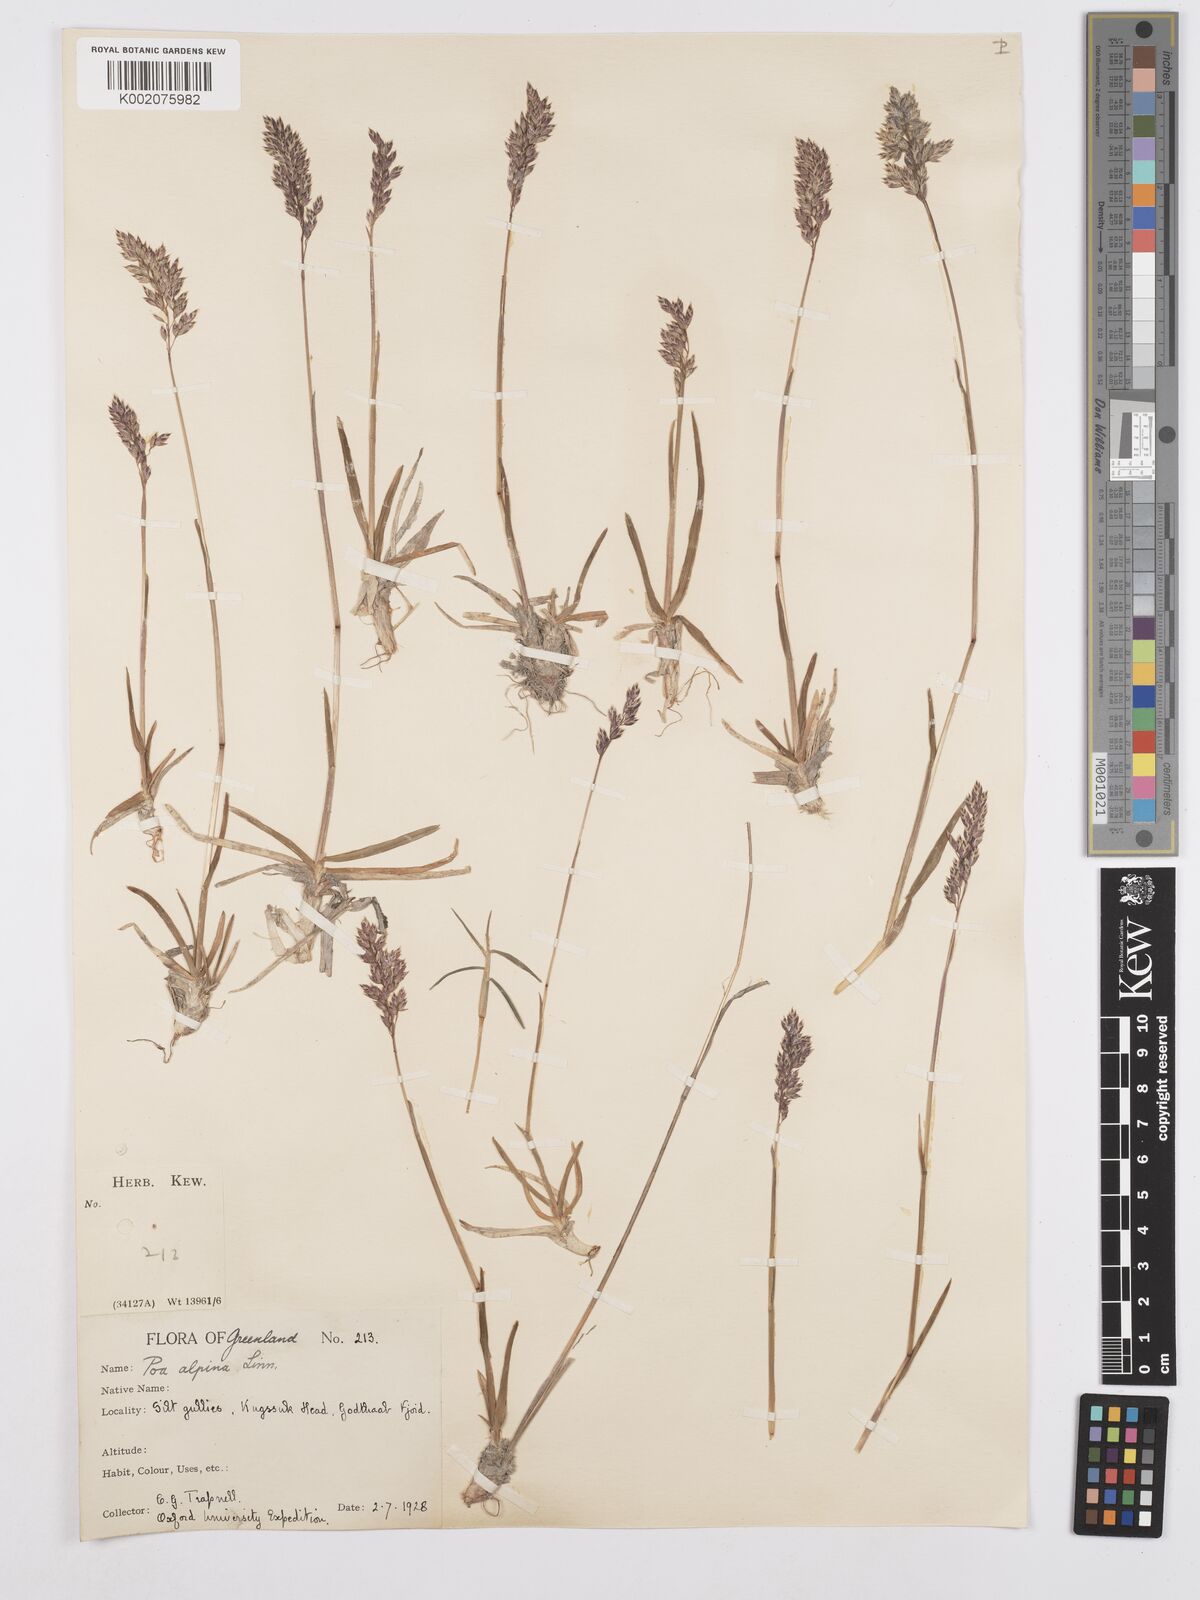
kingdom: Plantae
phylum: Tracheophyta
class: Liliopsida
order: Poales
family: Poaceae
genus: Poa
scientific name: Poa alpina
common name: Alpine bluegrass
